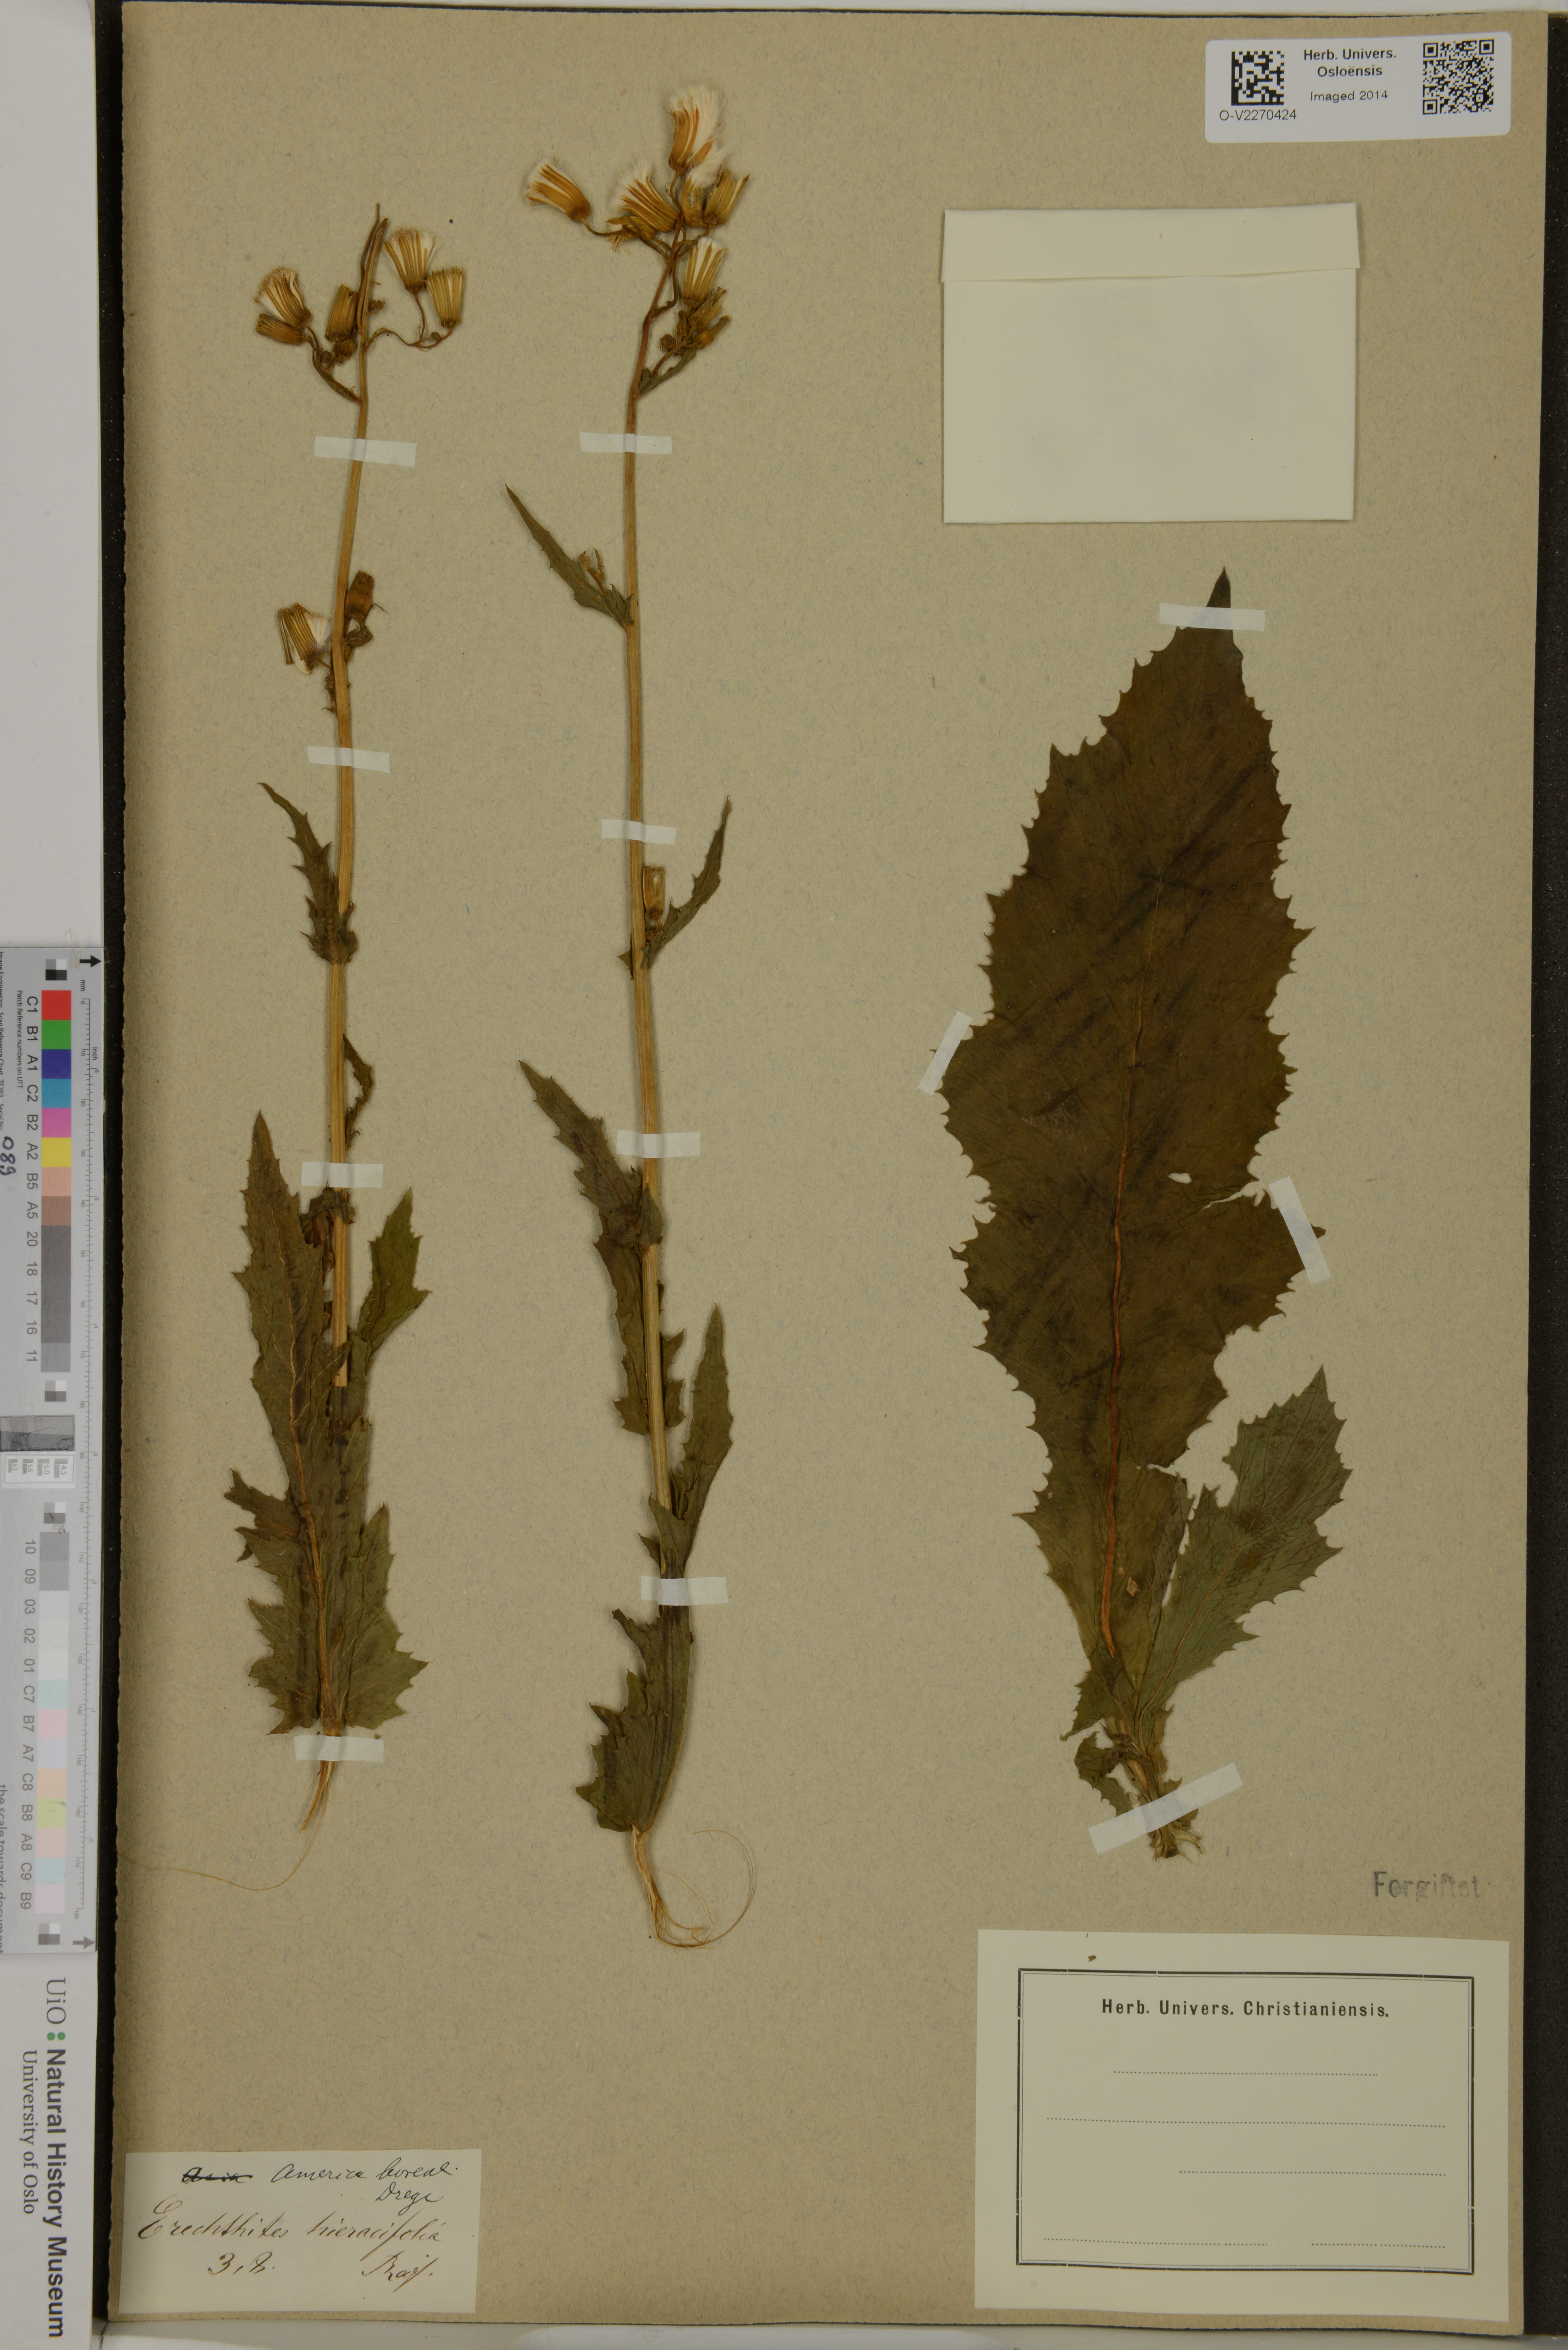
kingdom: Plantae
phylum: Tracheophyta
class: Magnoliopsida
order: Asterales
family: Asteraceae
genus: Erechtites
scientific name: Erechtites hieraciifolius
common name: American burnweed
